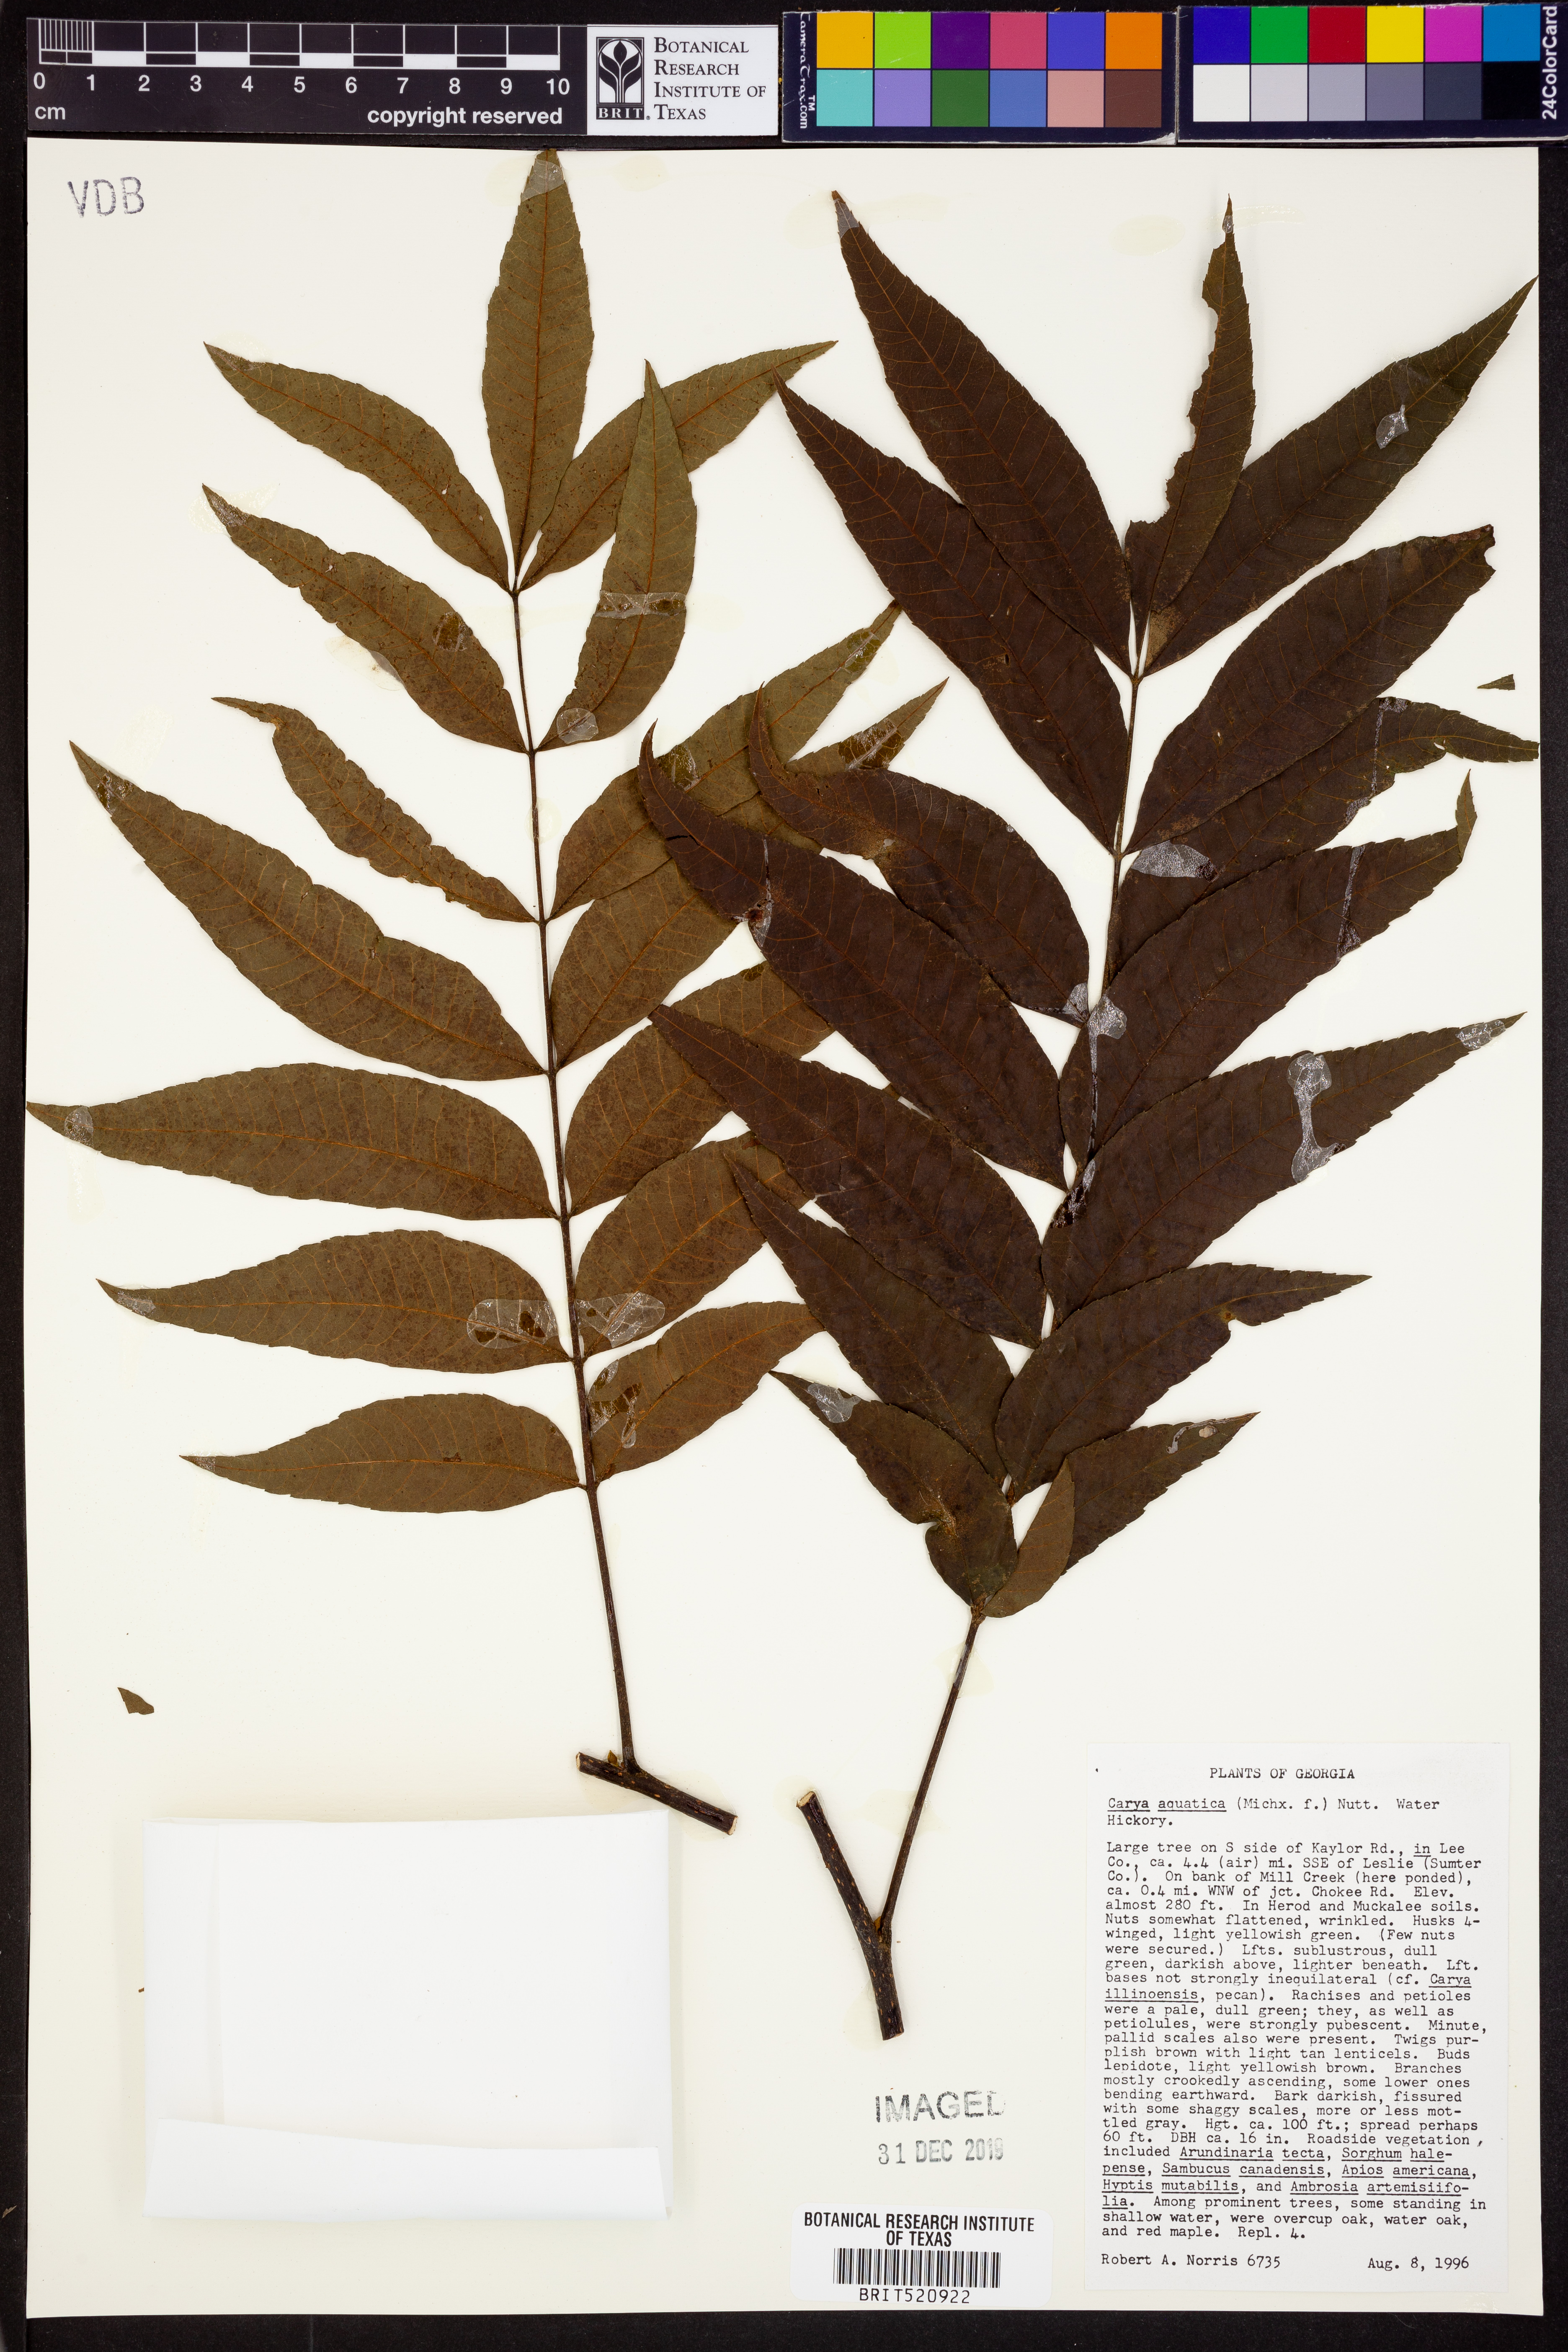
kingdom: Plantae
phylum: Tracheophyta
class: Magnoliopsida
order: Fagales
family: Juglandaceae
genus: Carya
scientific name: Carya aquatica
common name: Water hickory
